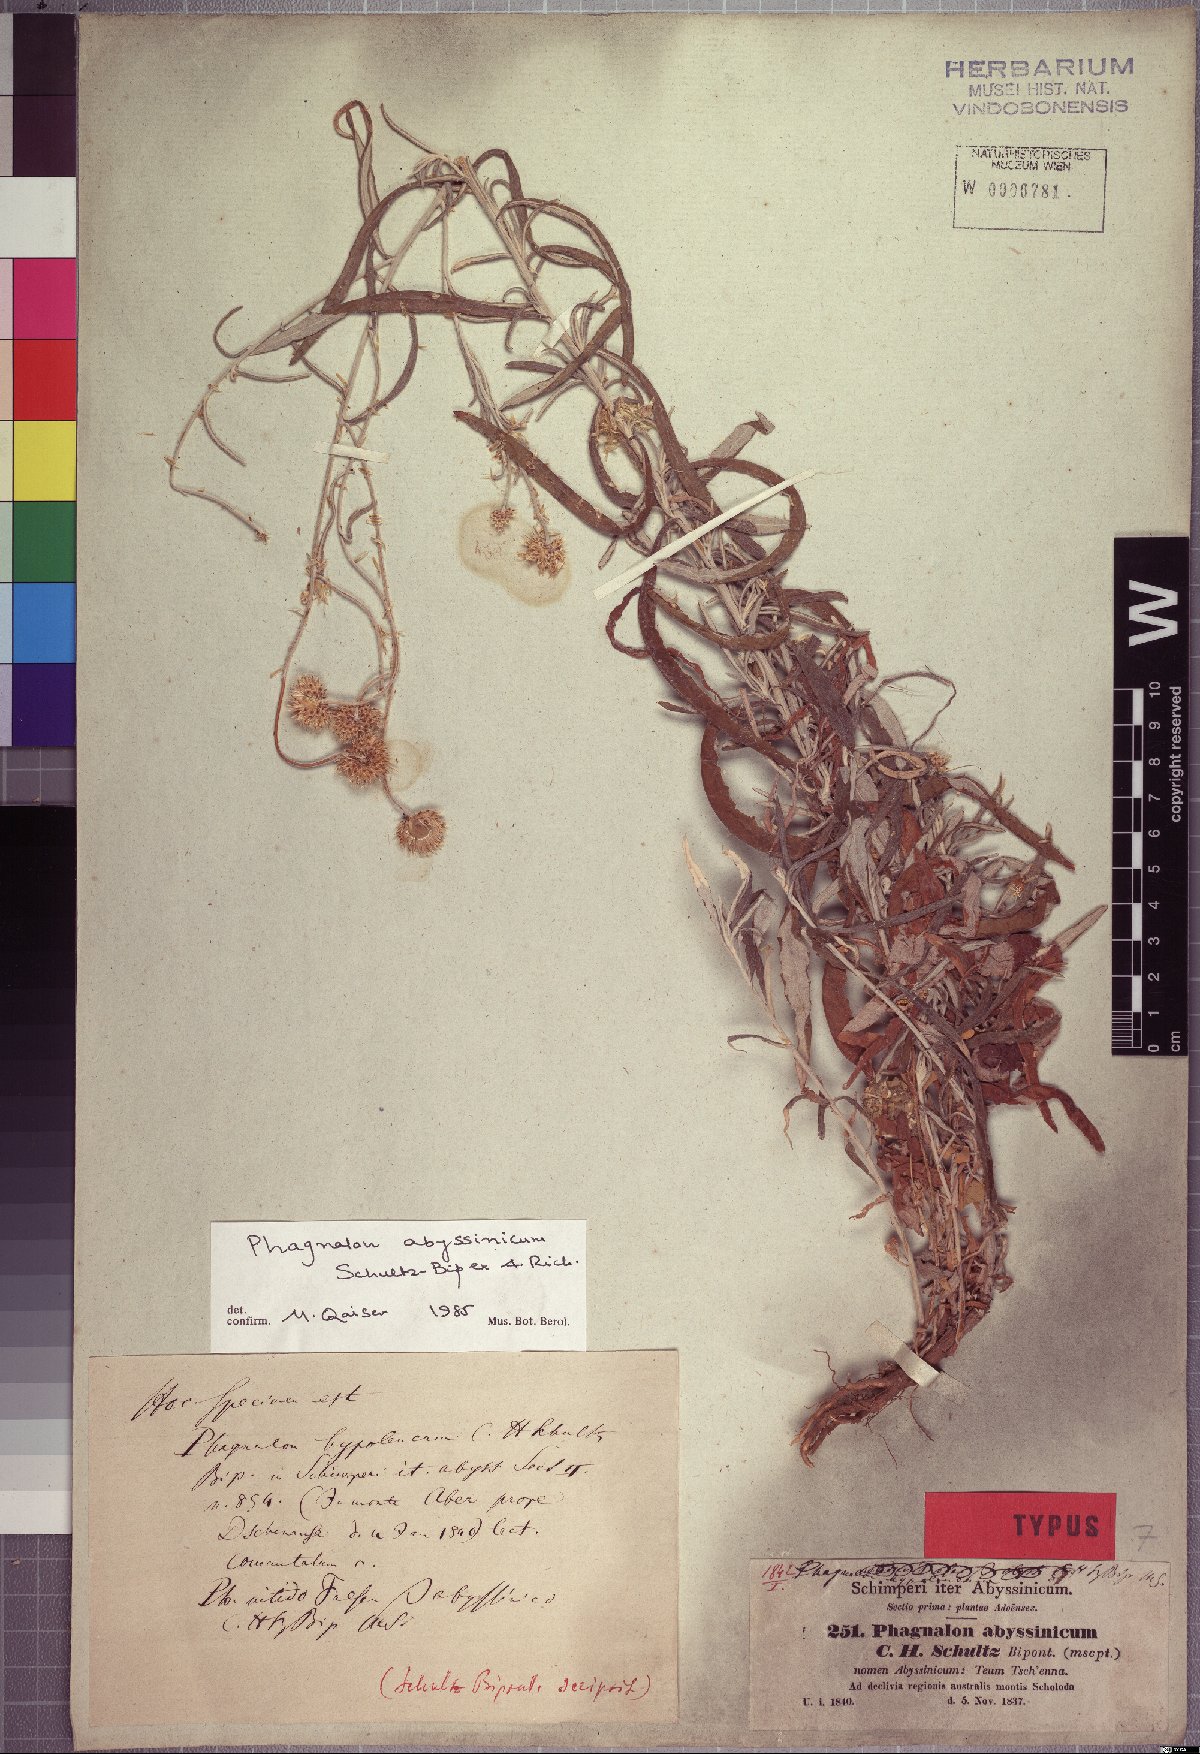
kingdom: Plantae
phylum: Tracheophyta
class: Magnoliopsida
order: Asterales
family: Asteraceae
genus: Phagnalon
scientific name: Phagnalon abyssinicum
